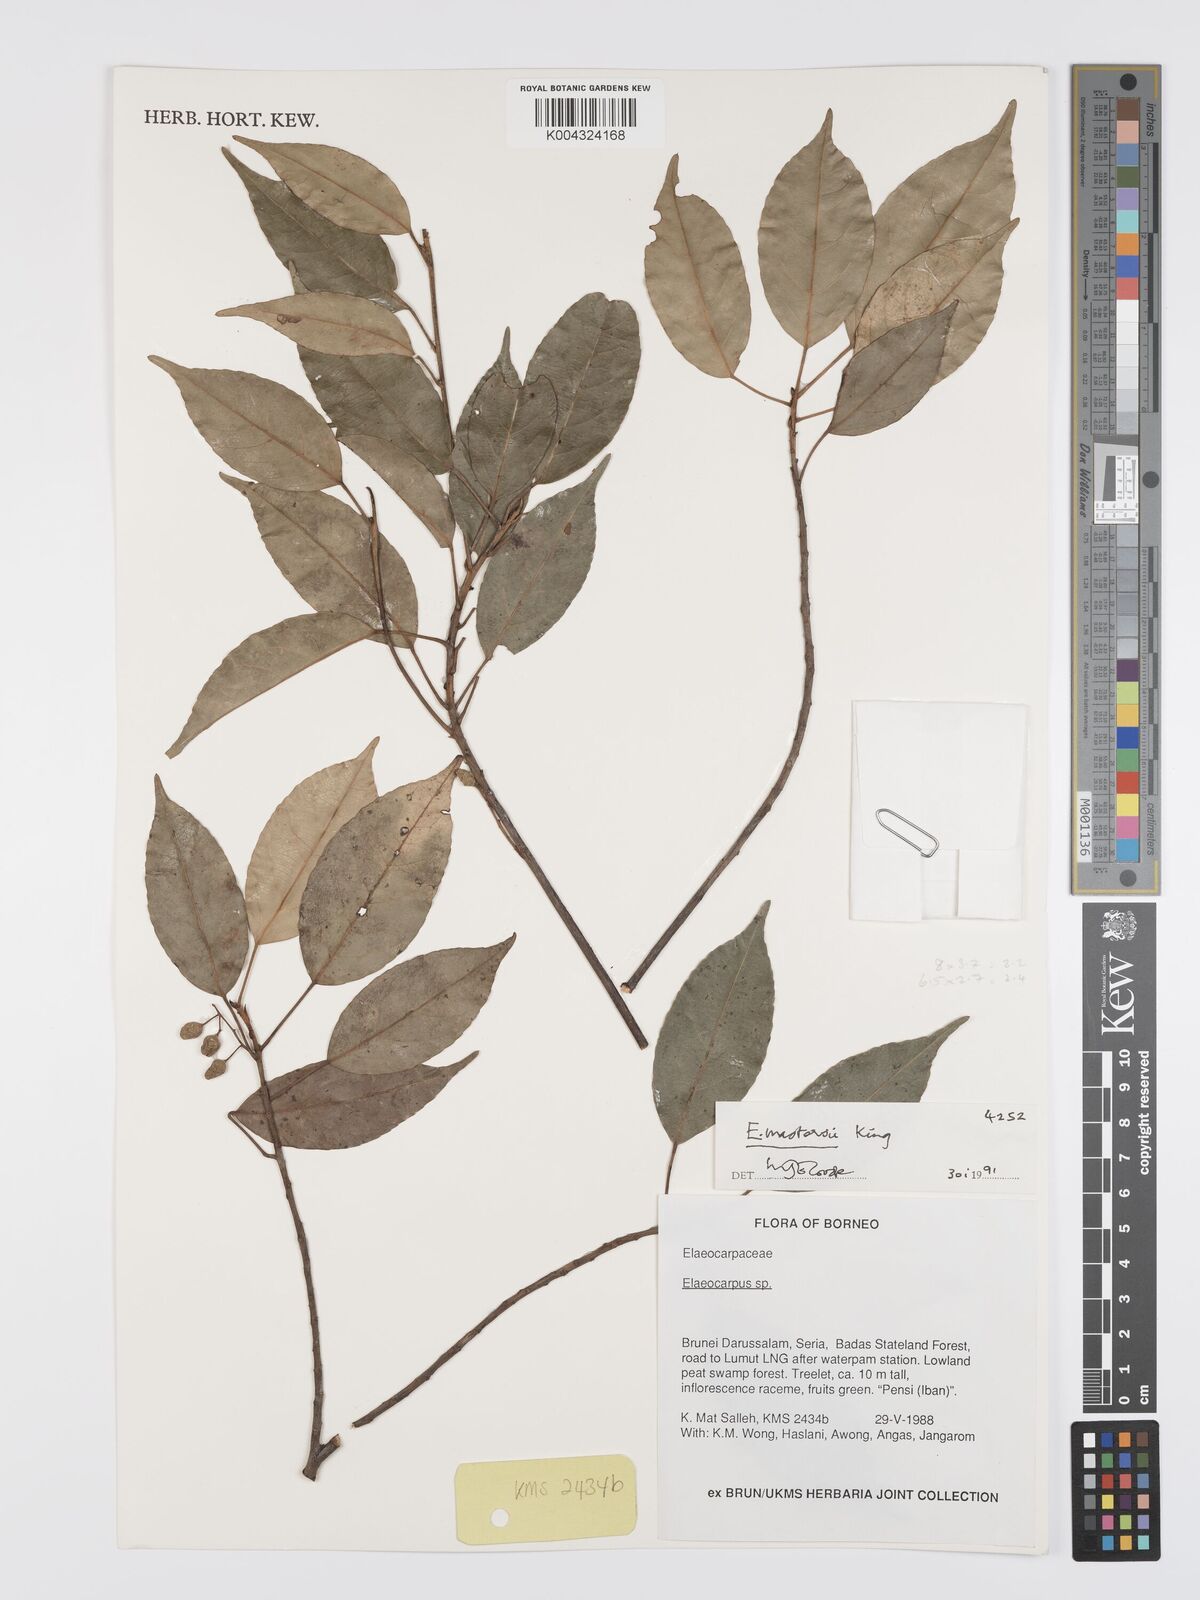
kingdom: Plantae
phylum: Tracheophyta
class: Magnoliopsida
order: Oxalidales
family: Elaeocarpaceae
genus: Elaeocarpus
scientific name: Elaeocarpus mastersii
